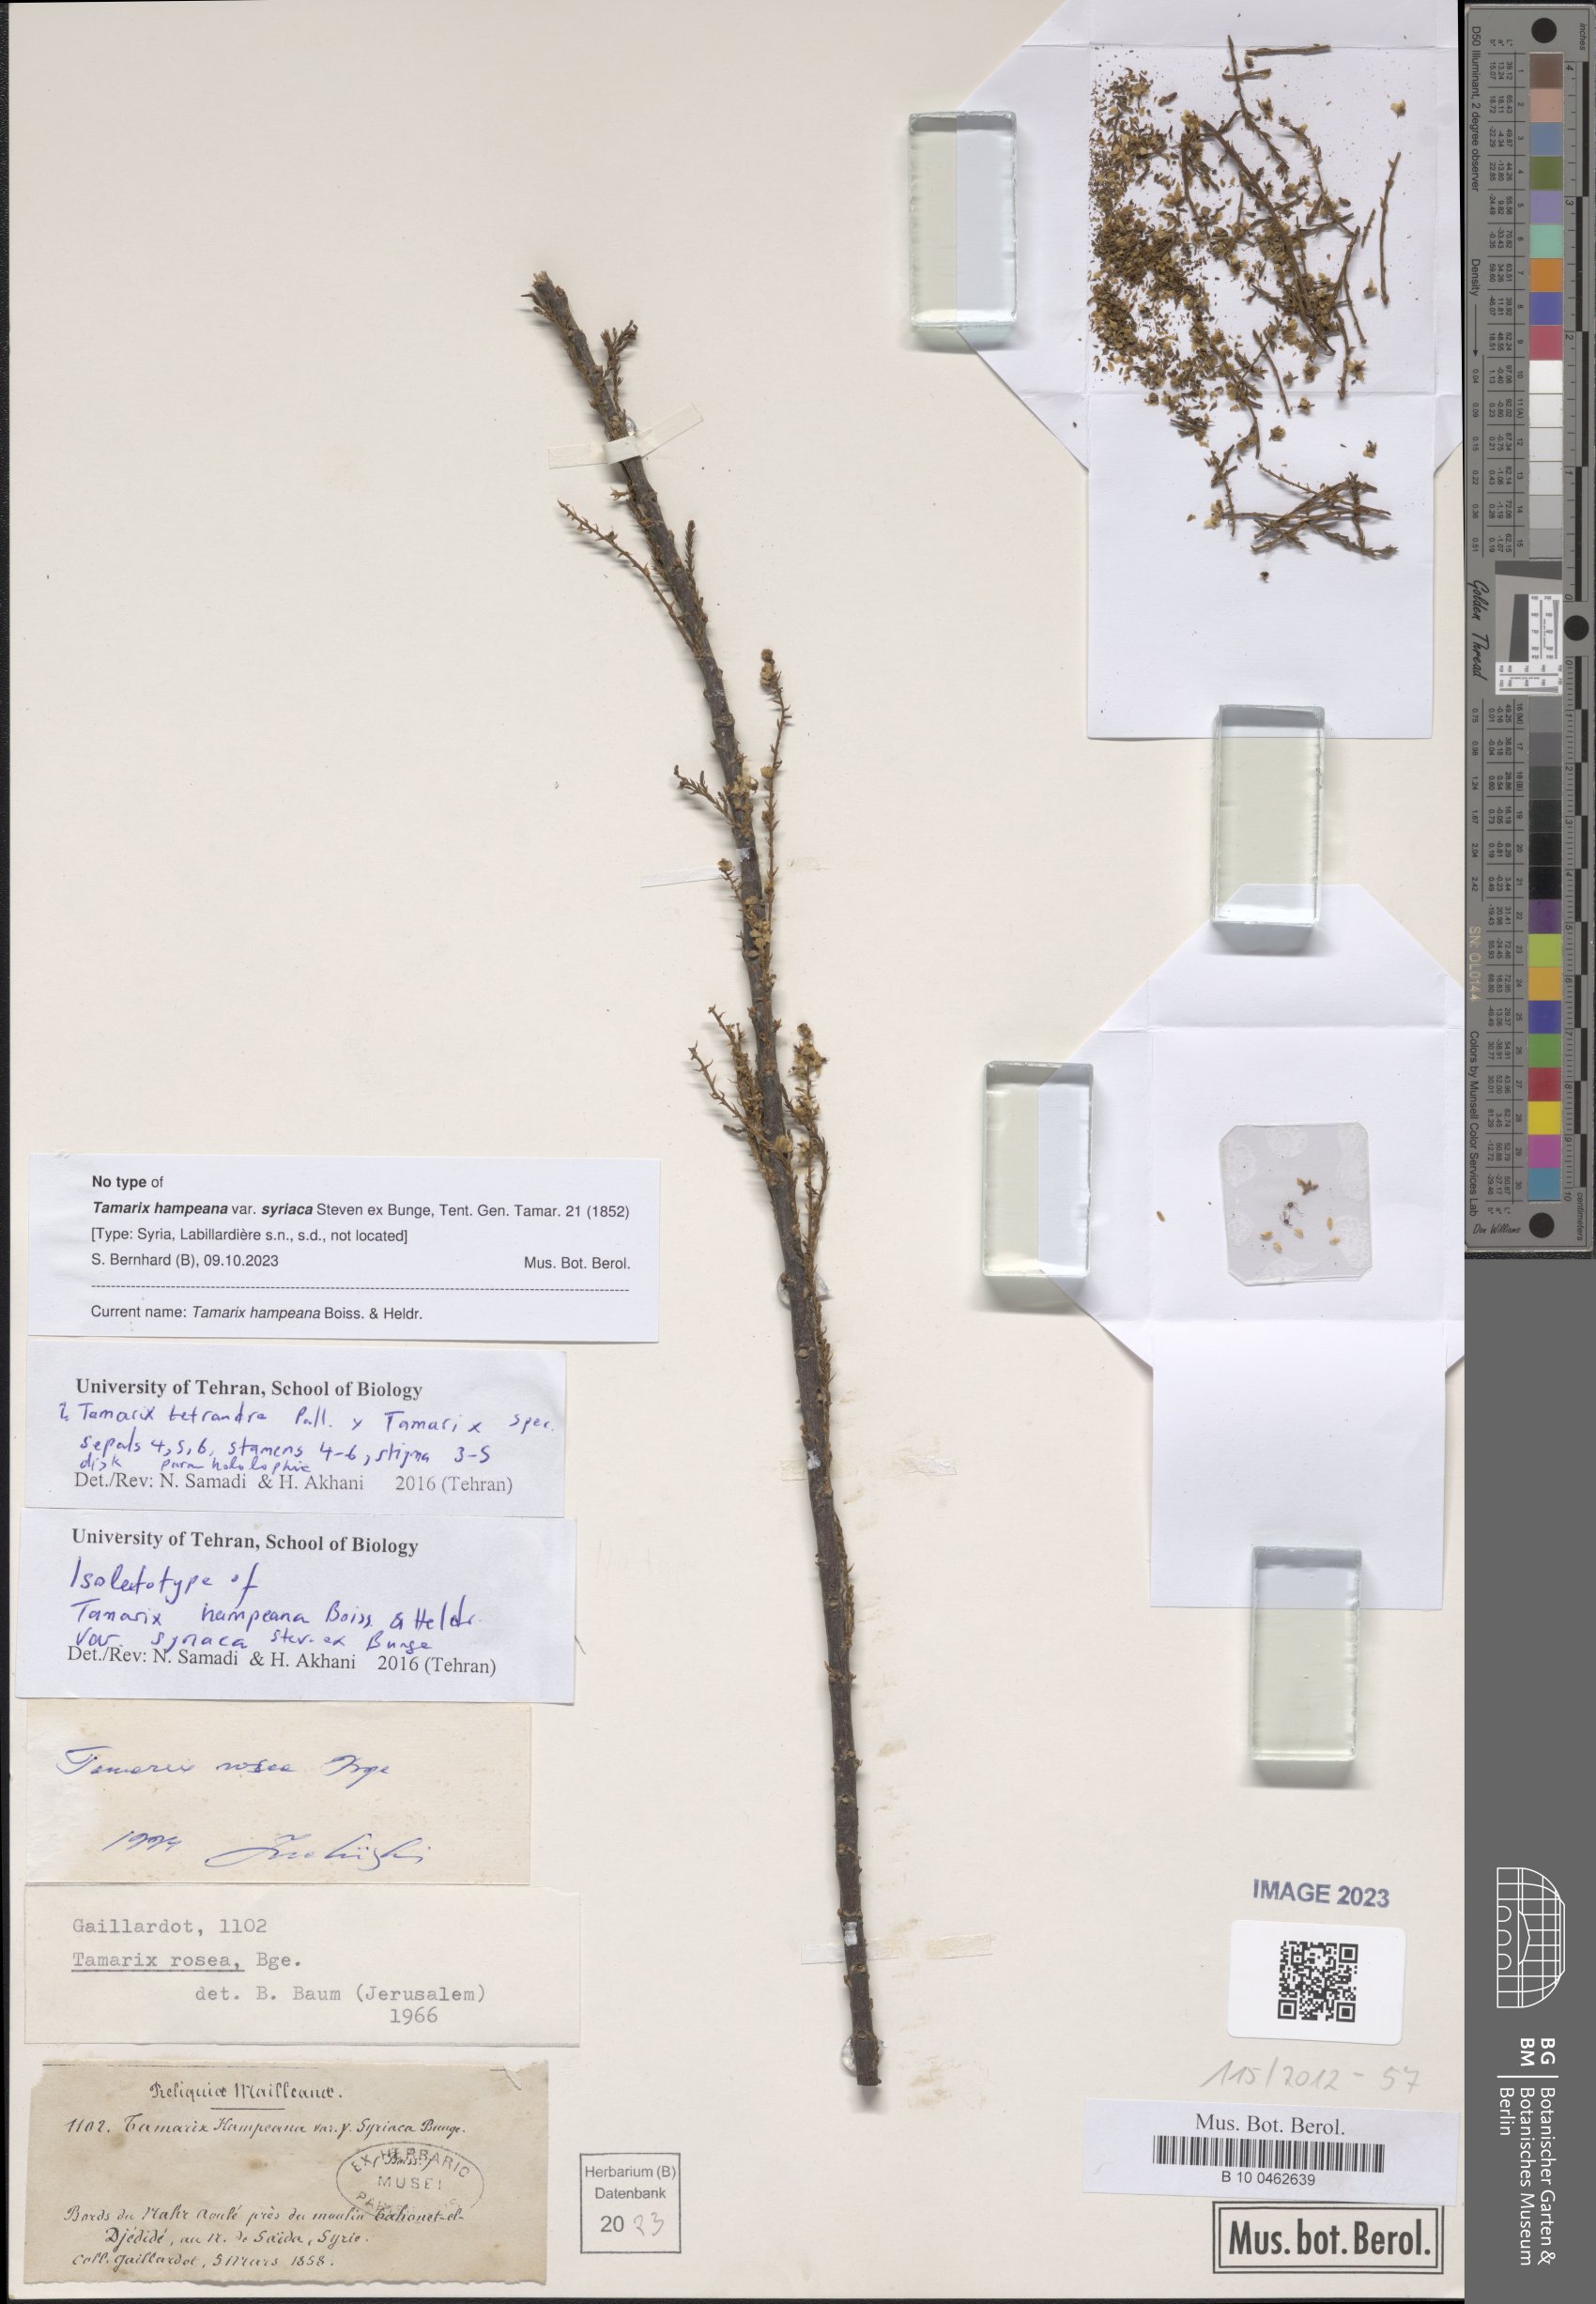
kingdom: Plantae
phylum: Tracheophyta
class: Magnoliopsida
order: Caryophyllales
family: Tamaricaceae
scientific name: Tamaricaceae
